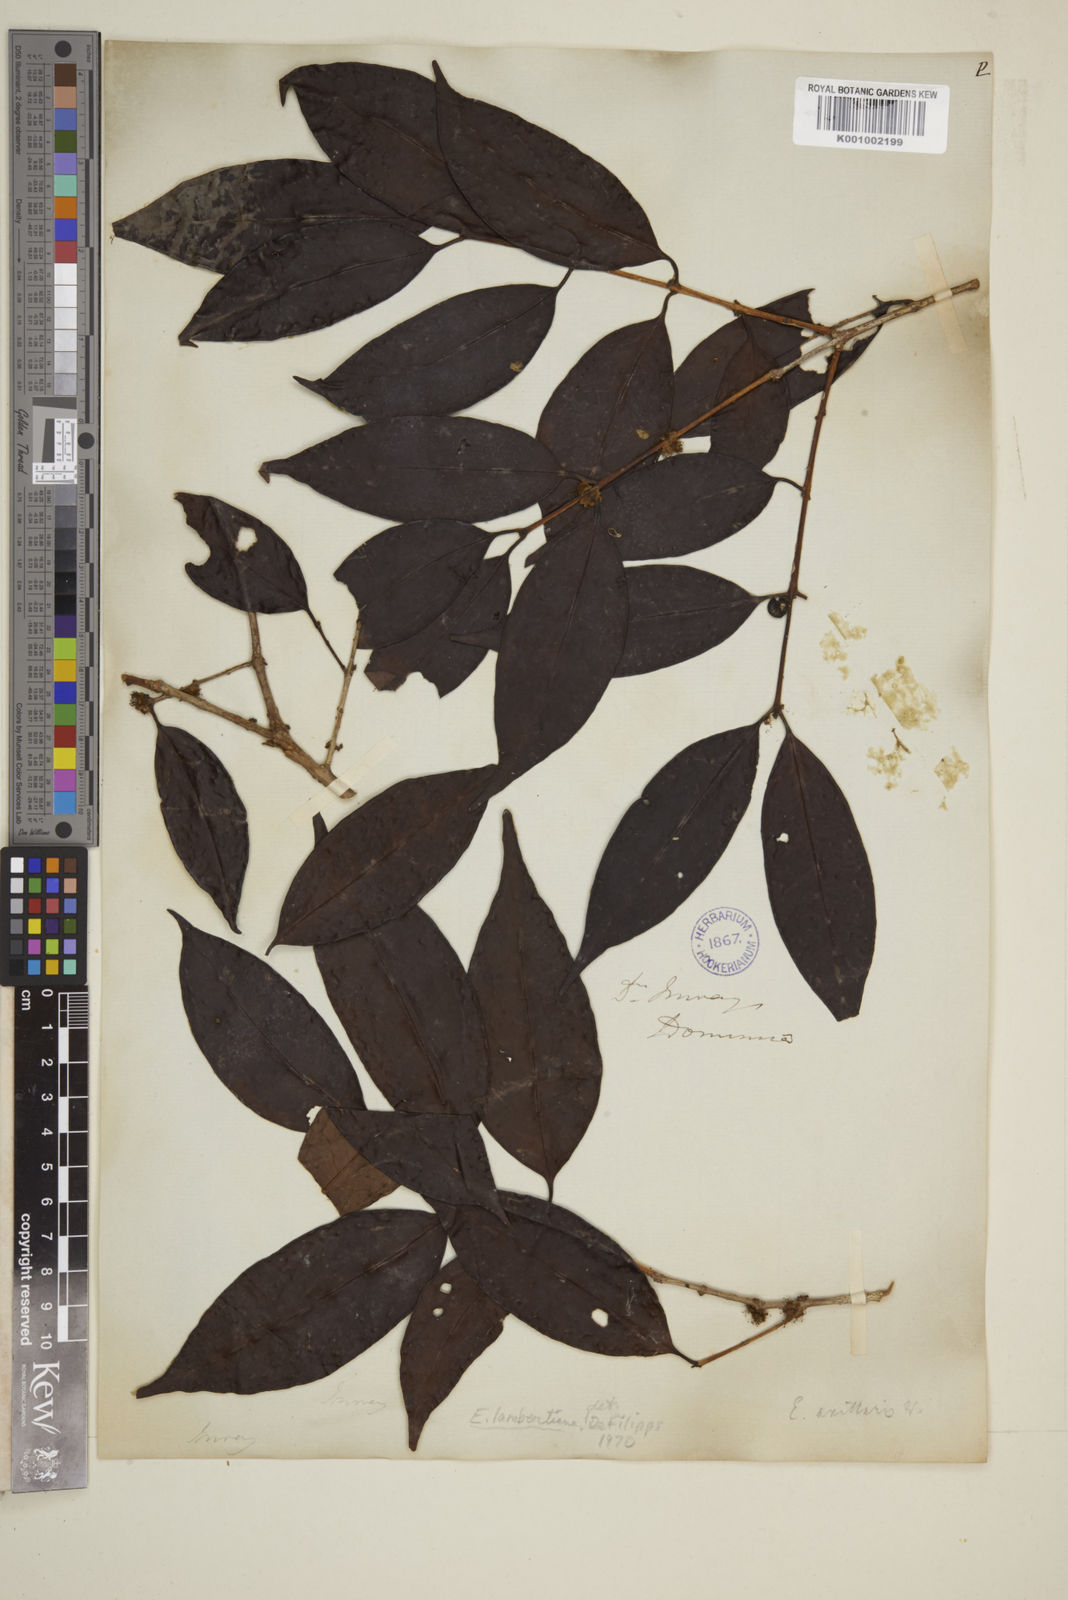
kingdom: Plantae
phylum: Tracheophyta
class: Magnoliopsida
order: Myrtales
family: Myrtaceae
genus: Eugenia
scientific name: Eugenia axillaris
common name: Choaky berry
